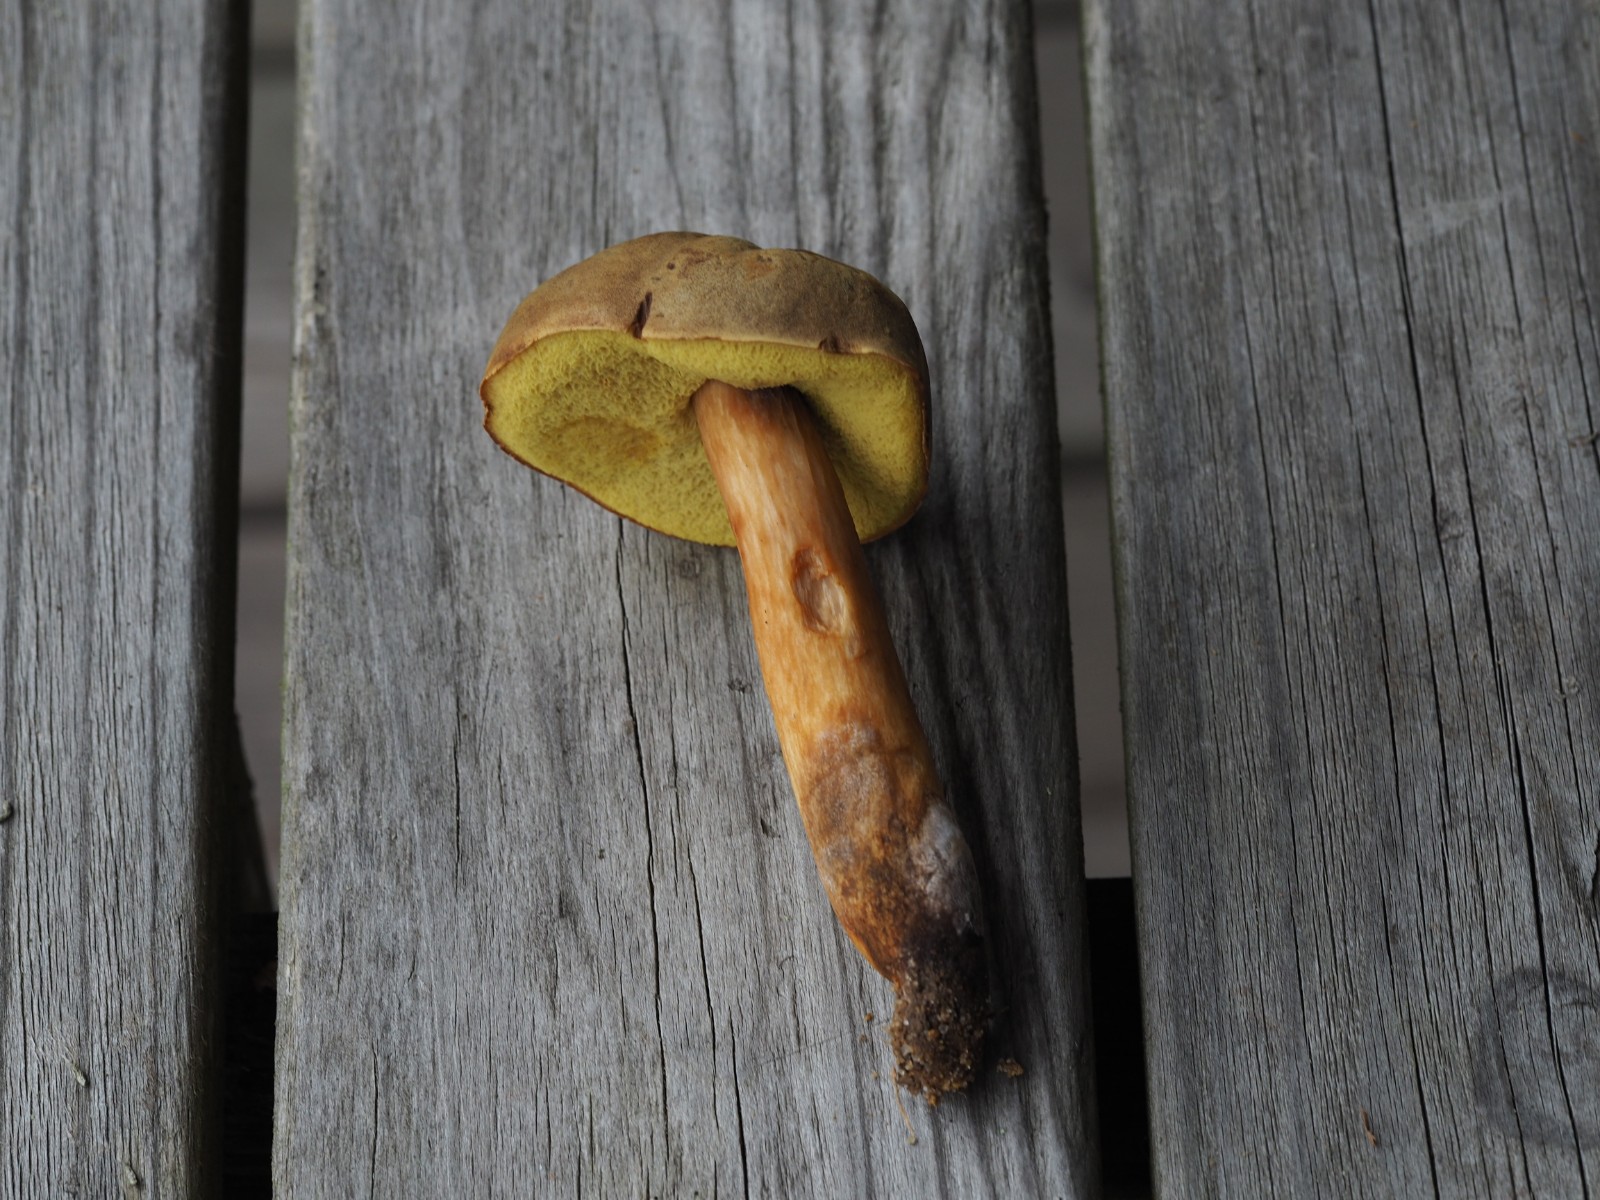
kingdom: Fungi
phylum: Basidiomycota
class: Agaricomycetes
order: Boletales
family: Boletaceae
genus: Xerocomus
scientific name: Xerocomus ferrugineus
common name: vaskeskinds-rørhat
